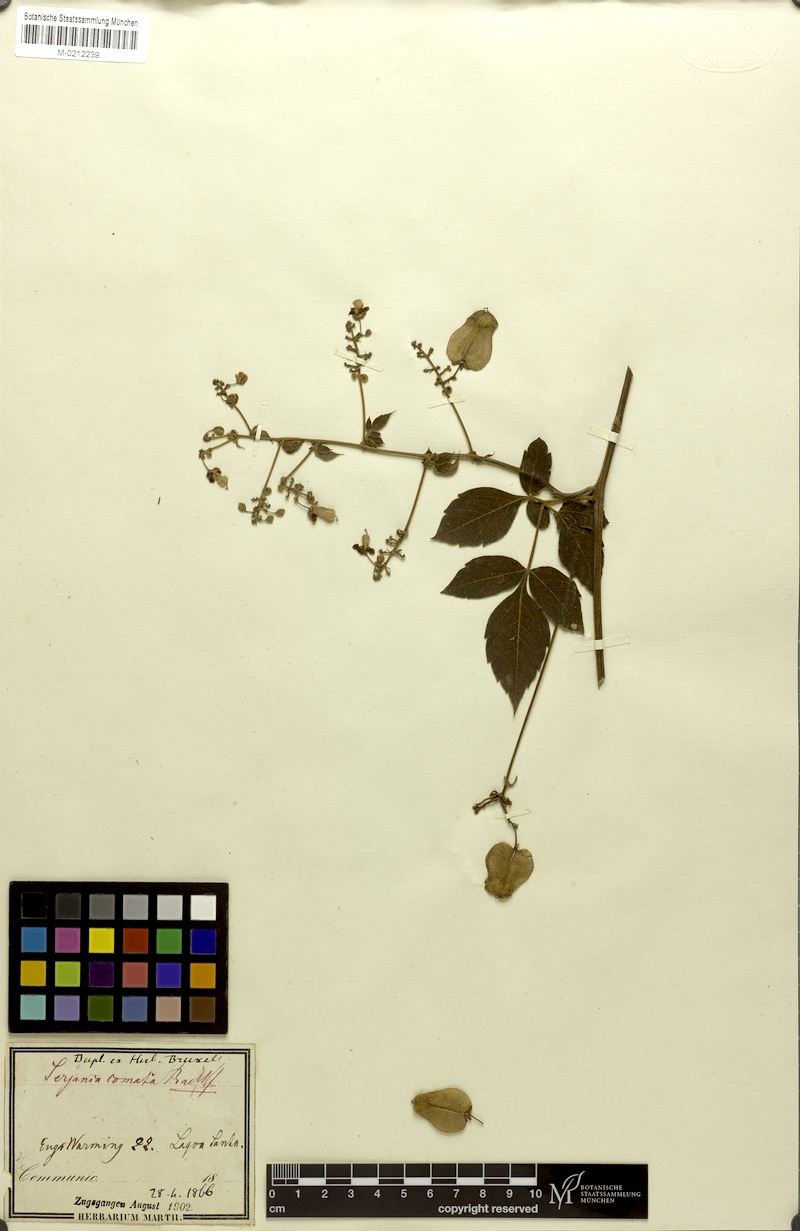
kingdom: Plantae
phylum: Tracheophyta
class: Magnoliopsida
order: Sapindales
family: Sapindaceae
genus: Serjania
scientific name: Serjania comata
